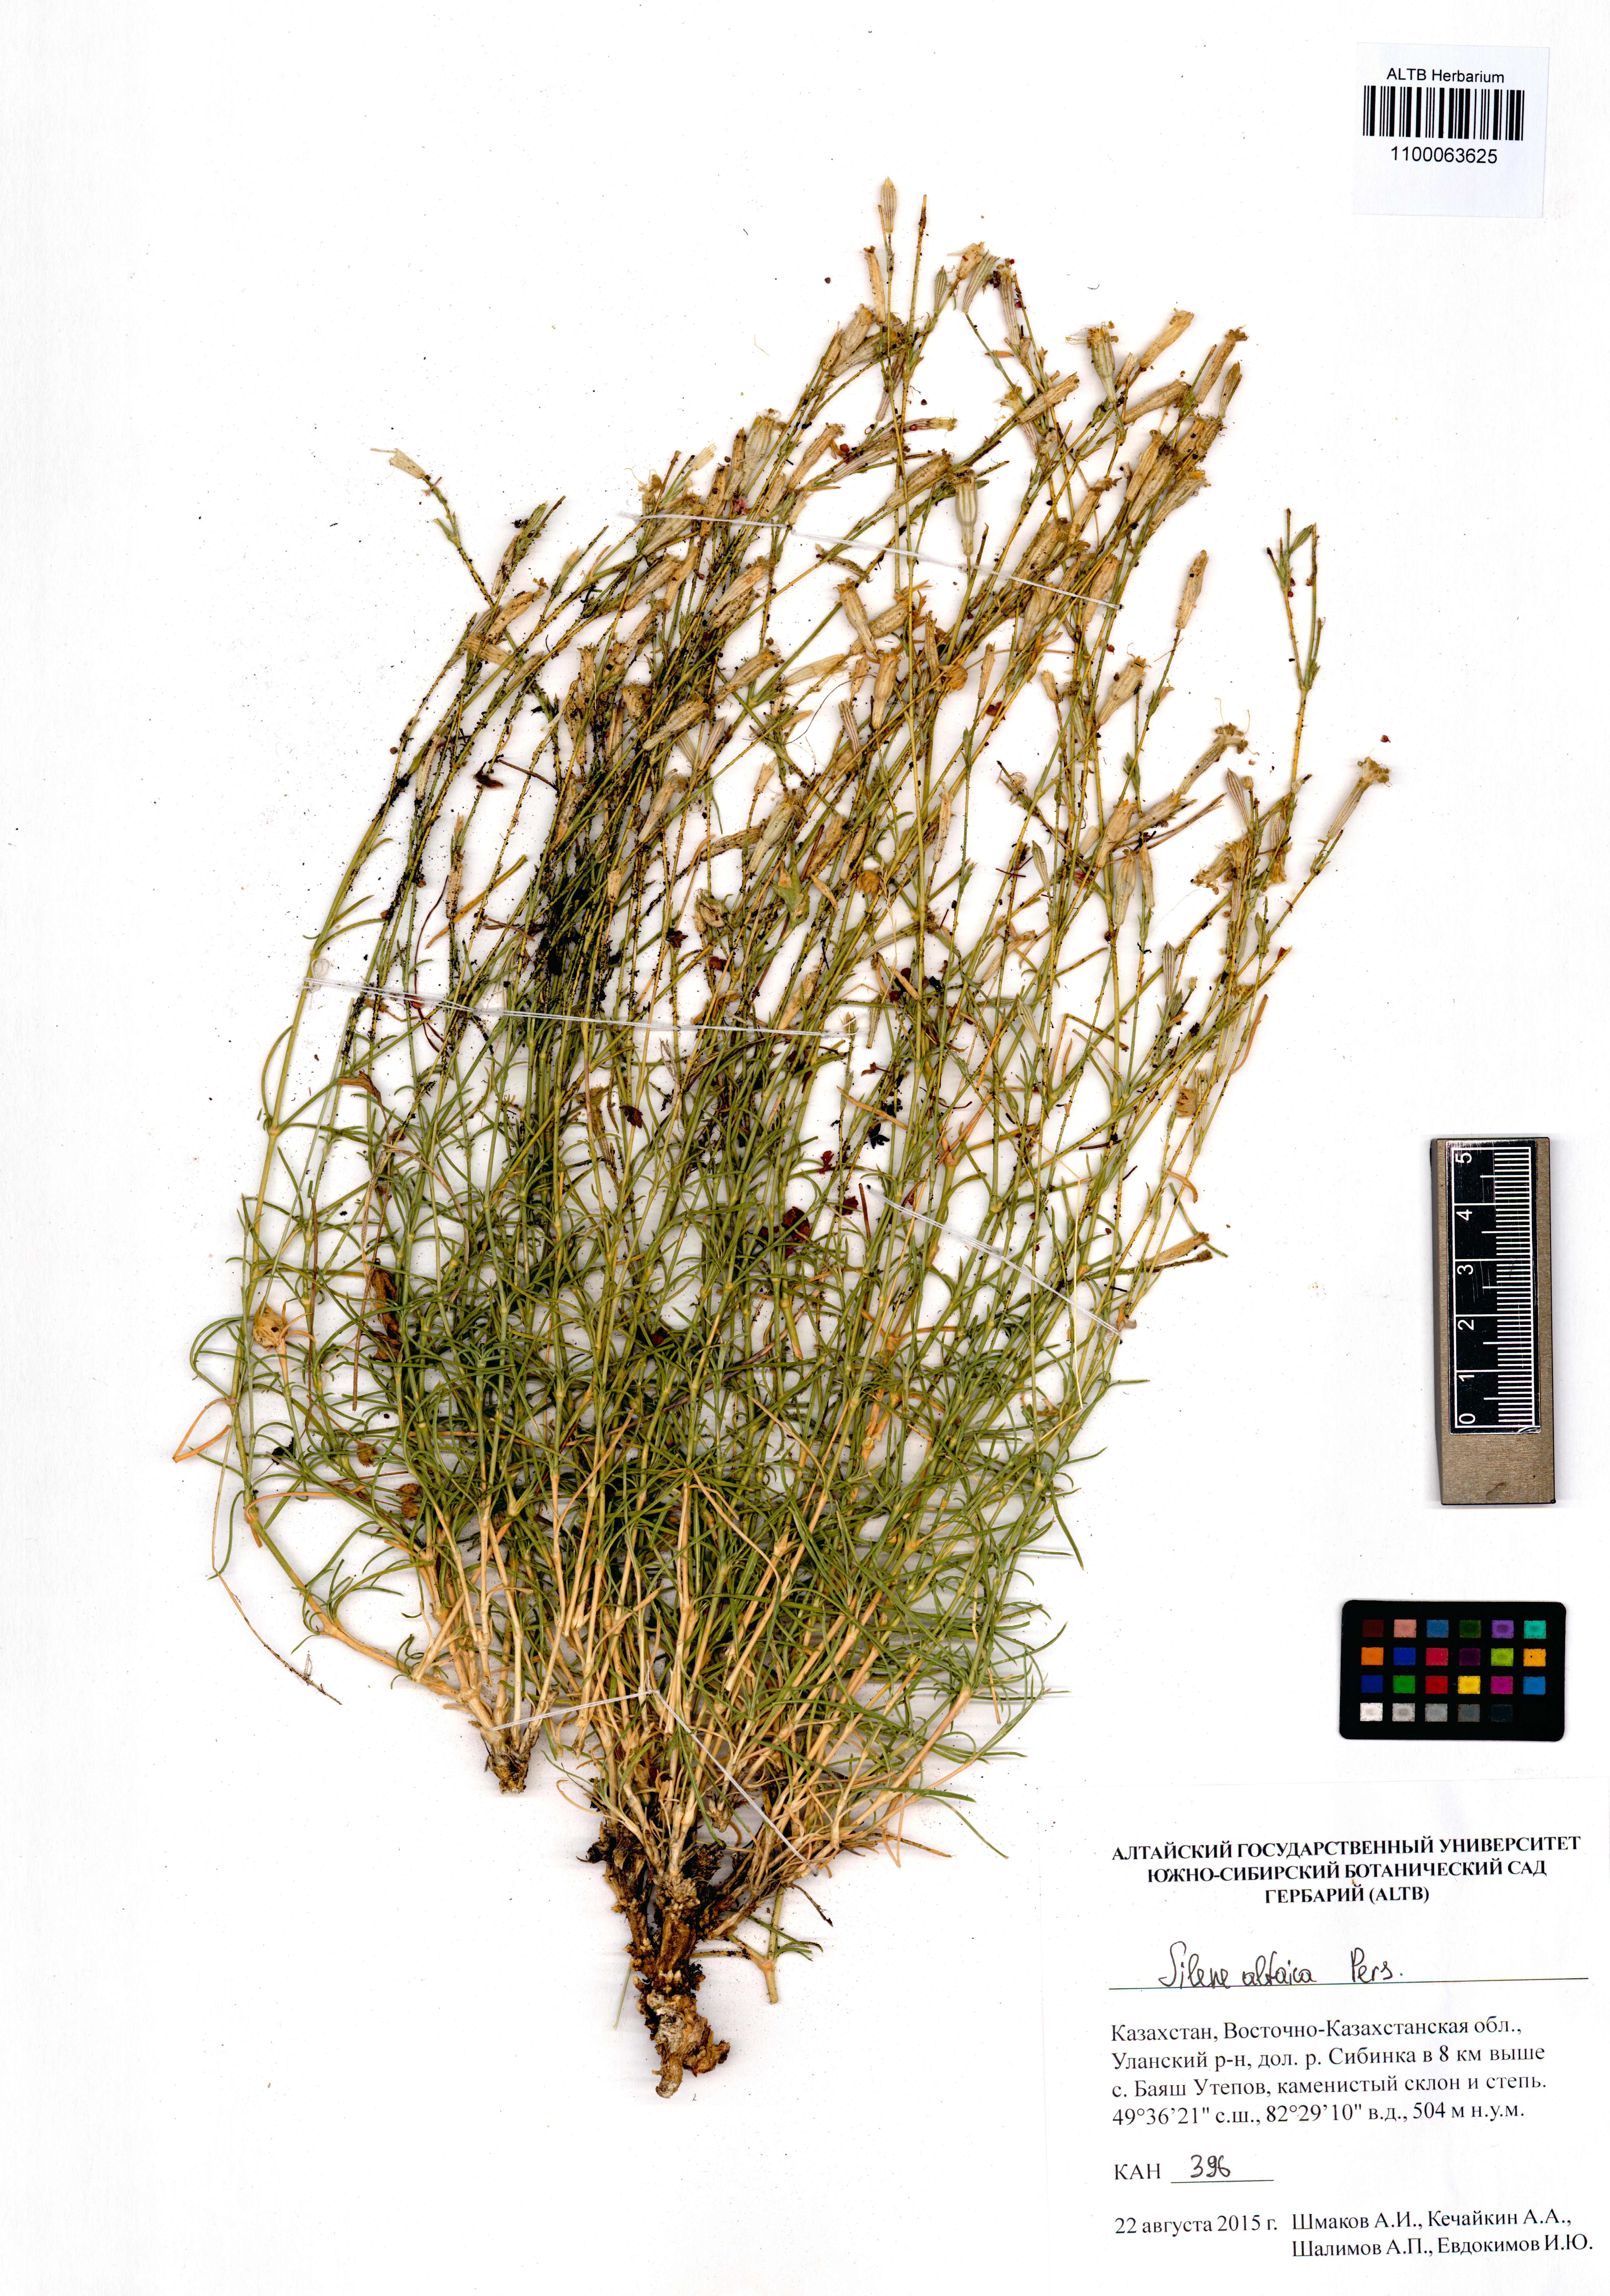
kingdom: Plantae
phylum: Tracheophyta
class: Magnoliopsida
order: Caryophyllales
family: Caryophyllaceae
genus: Silene
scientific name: Silene altaica
